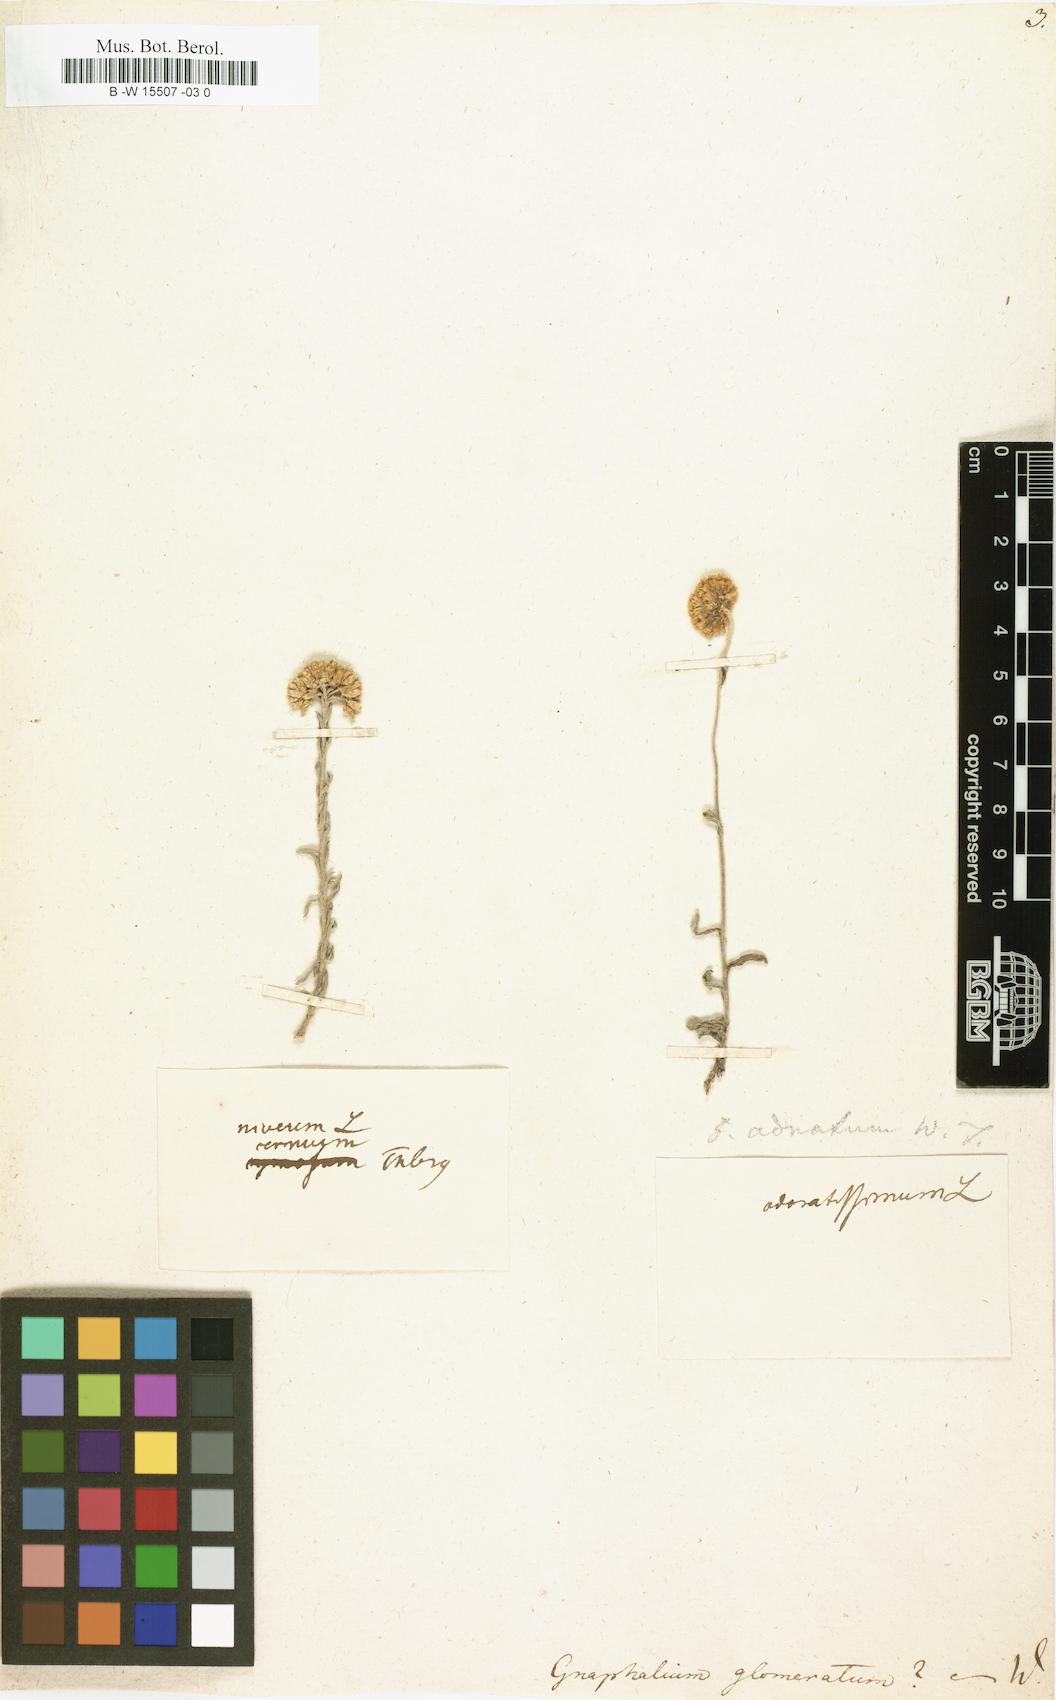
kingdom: Plantae
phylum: Tracheophyta
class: Magnoliopsida
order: Asterales
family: Asteraceae
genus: Gnaphalium
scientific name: Gnaphalium glomeratum
